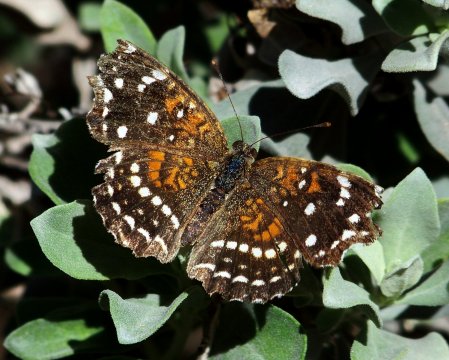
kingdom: Animalia
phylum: Arthropoda
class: Insecta
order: Lepidoptera
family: Nymphalidae
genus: Anthanassa
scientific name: Anthanassa texana
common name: Texan Crescent
